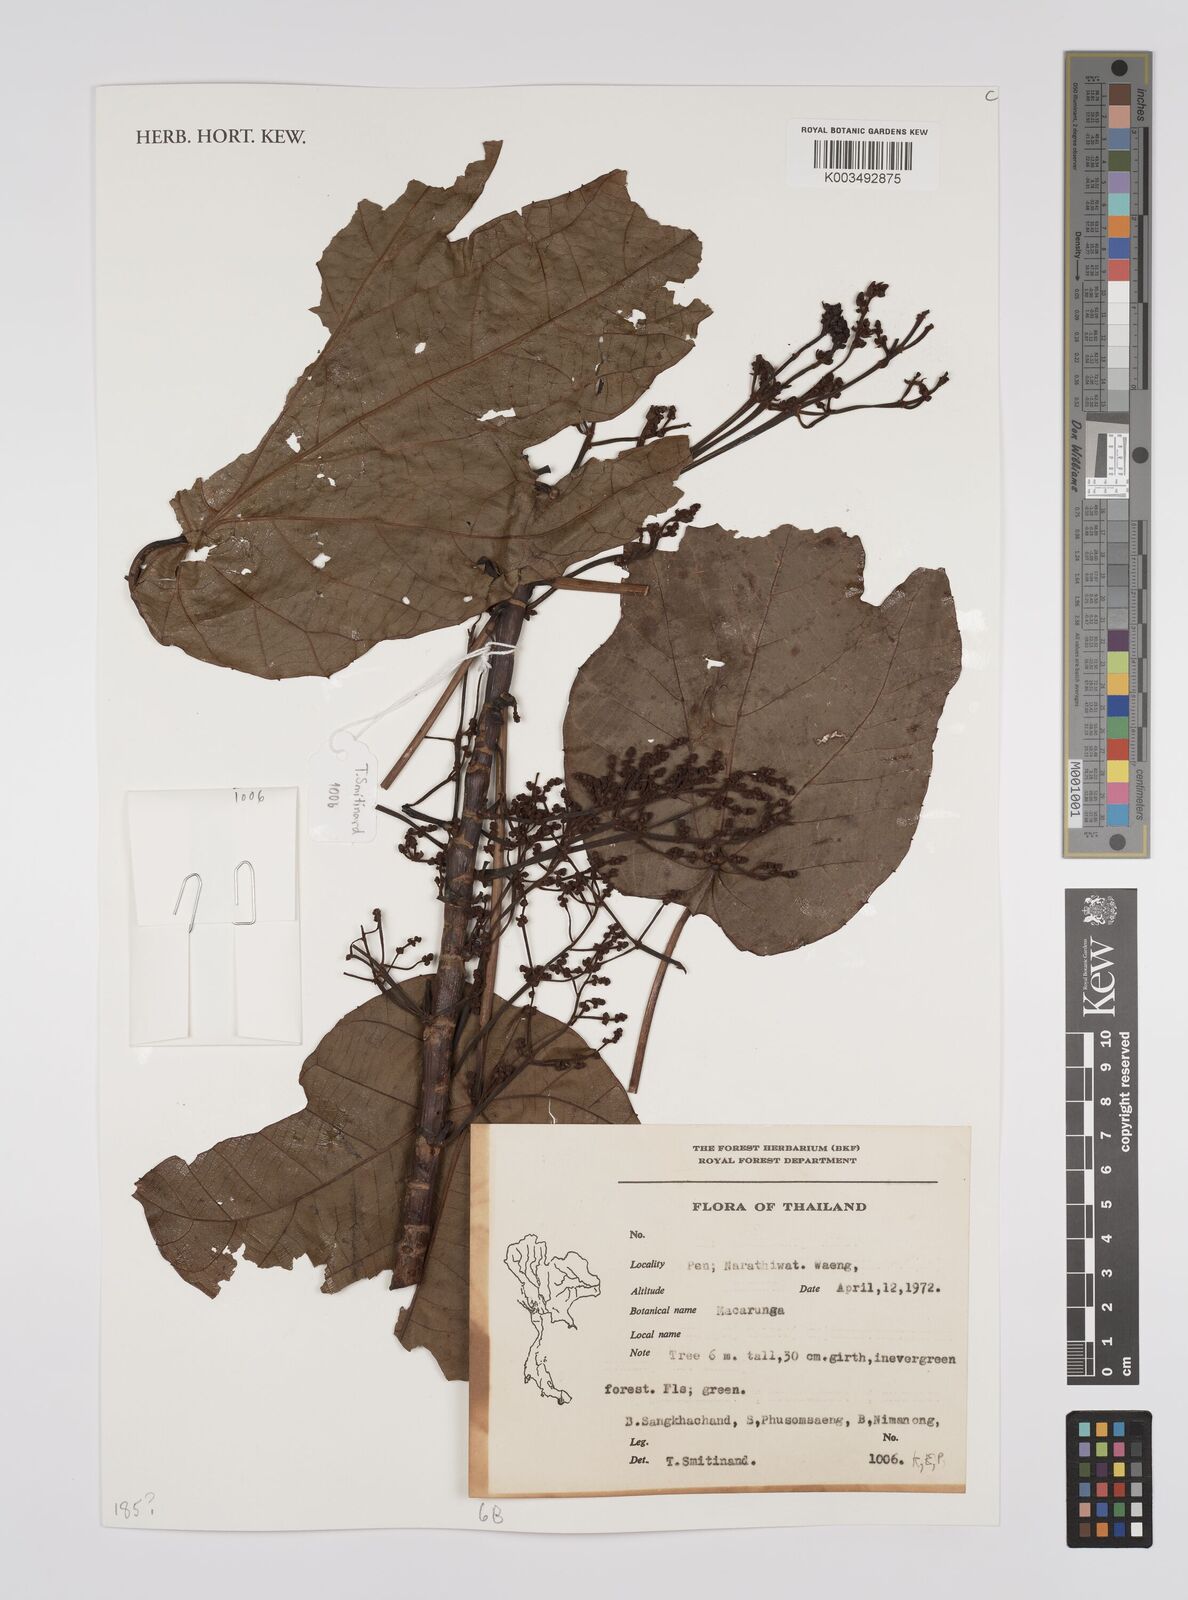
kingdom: Plantae
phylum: Tracheophyta
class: Magnoliopsida
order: Malpighiales
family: Euphorbiaceae
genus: Macaranga
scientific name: Macaranga
